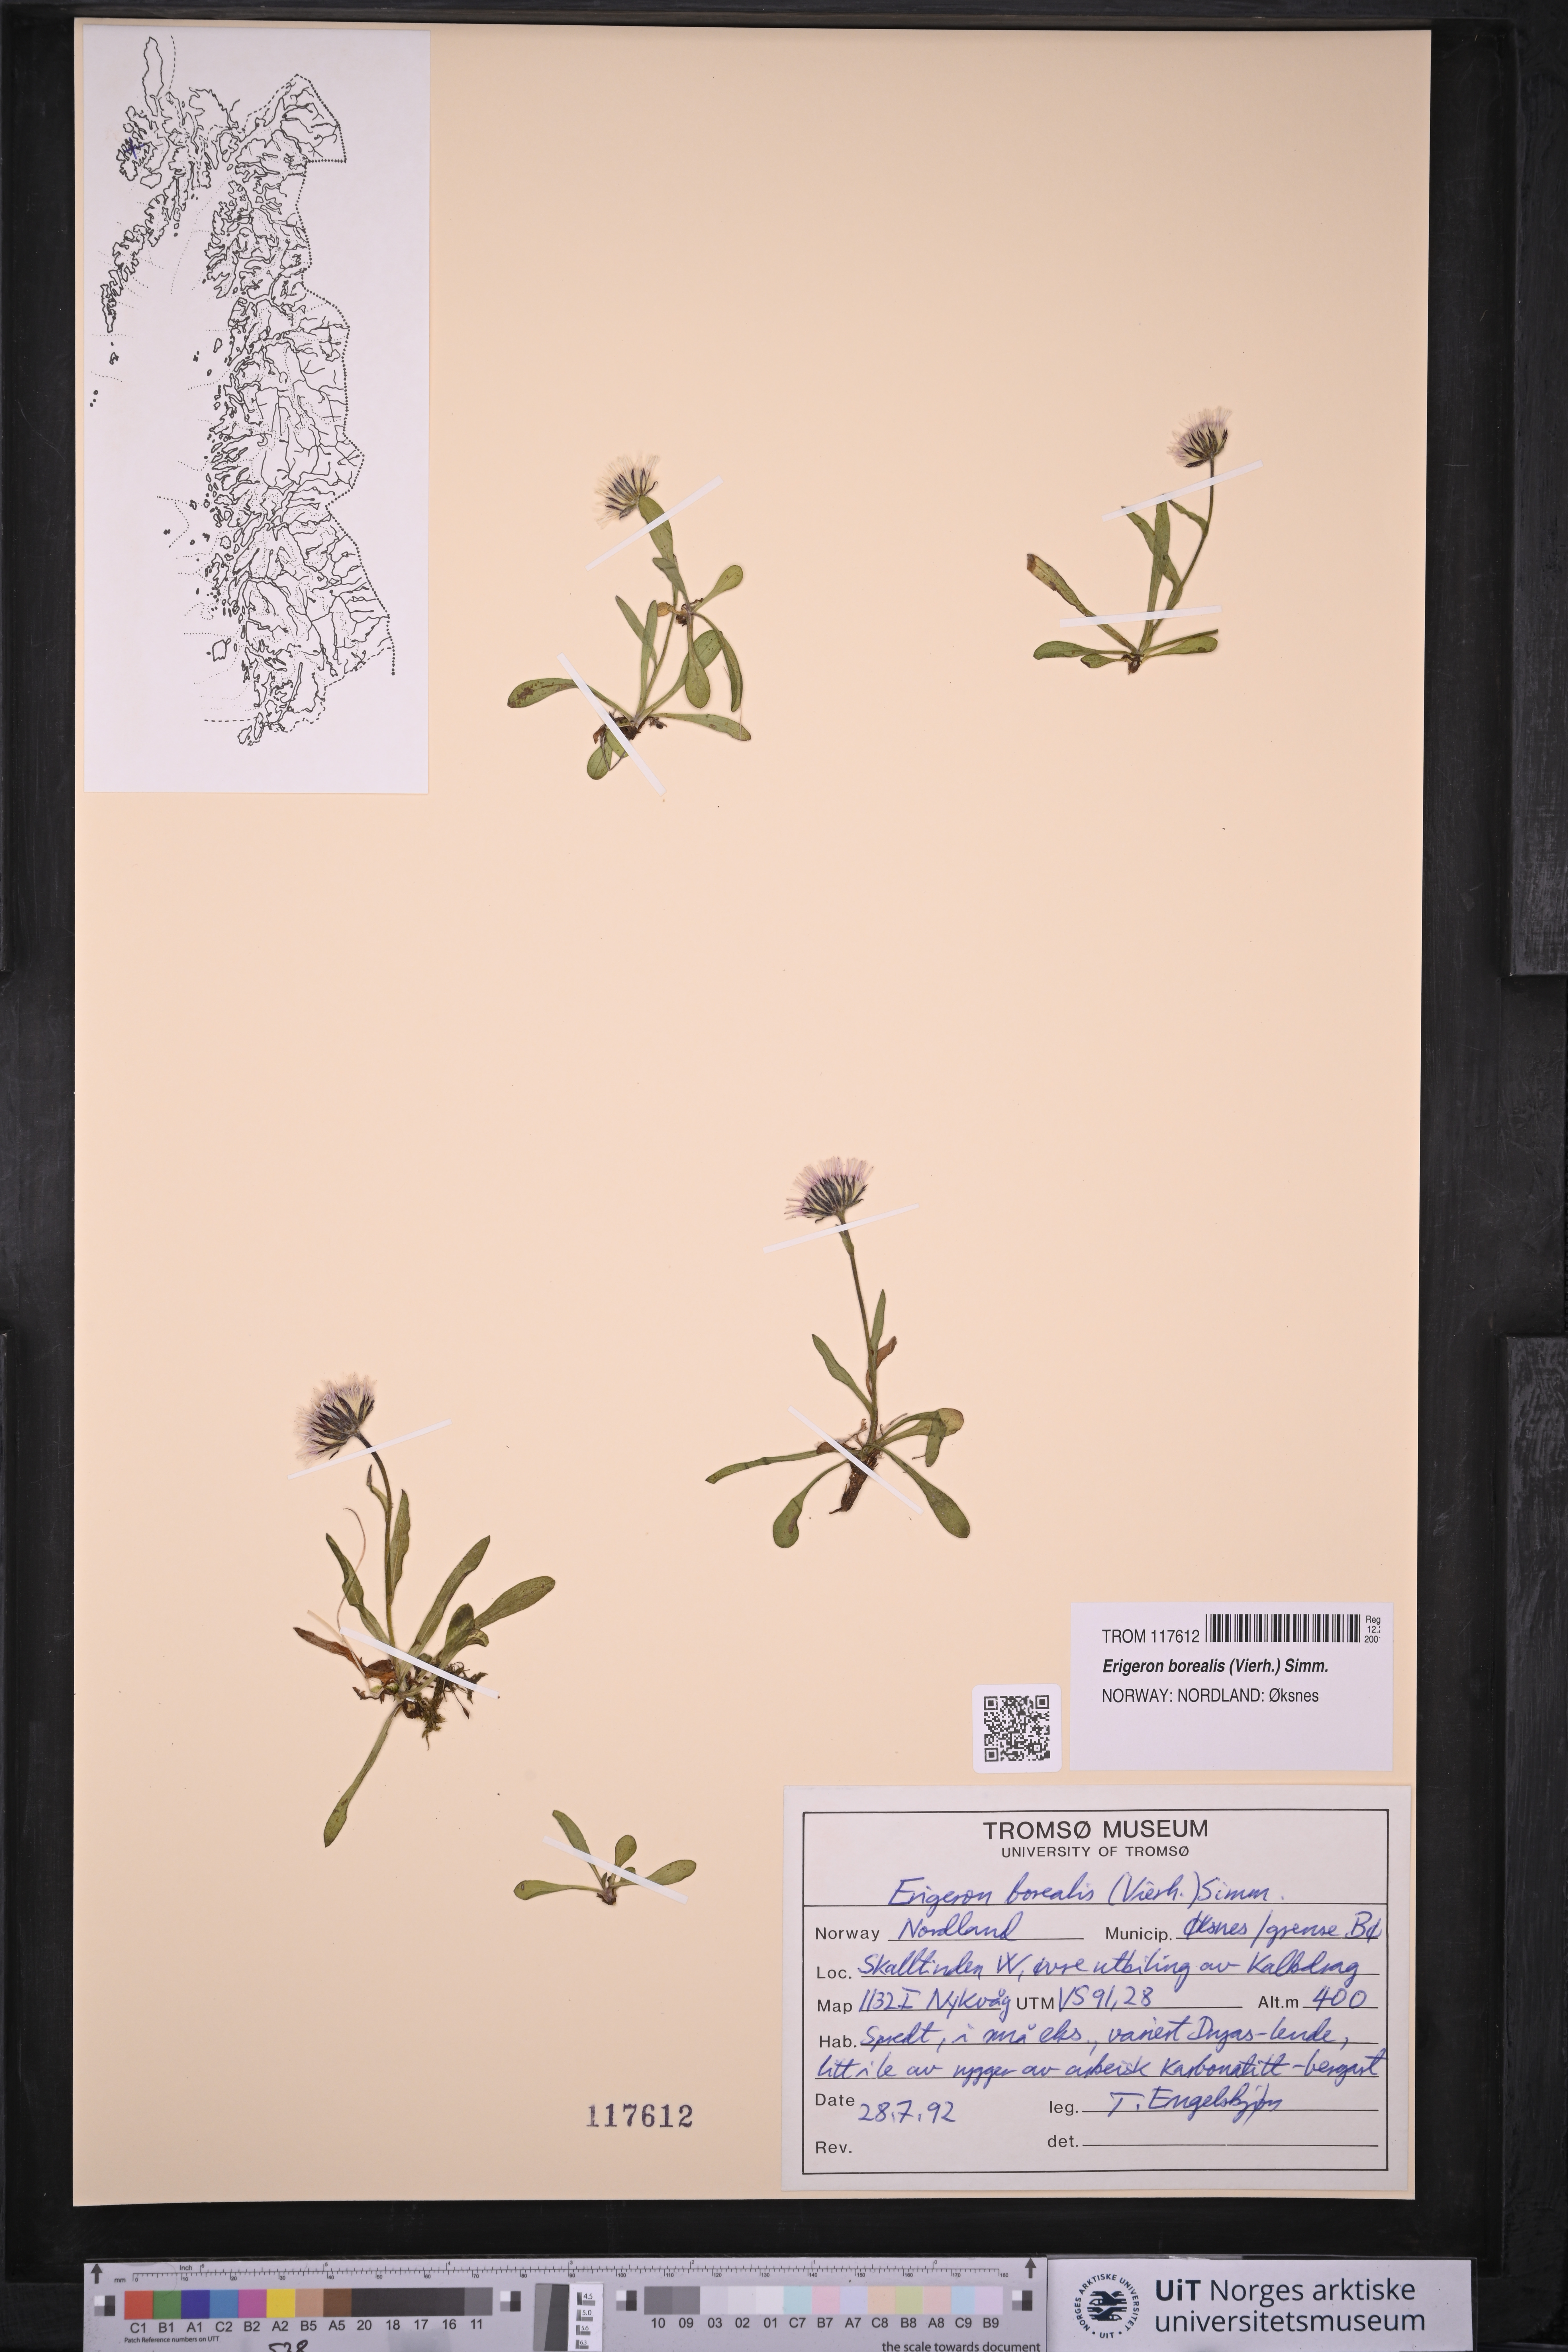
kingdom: Plantae
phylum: Tracheophyta
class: Magnoliopsida
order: Asterales
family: Asteraceae
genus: Erigeron
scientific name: Erigeron borealis
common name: Alpine fleabane
